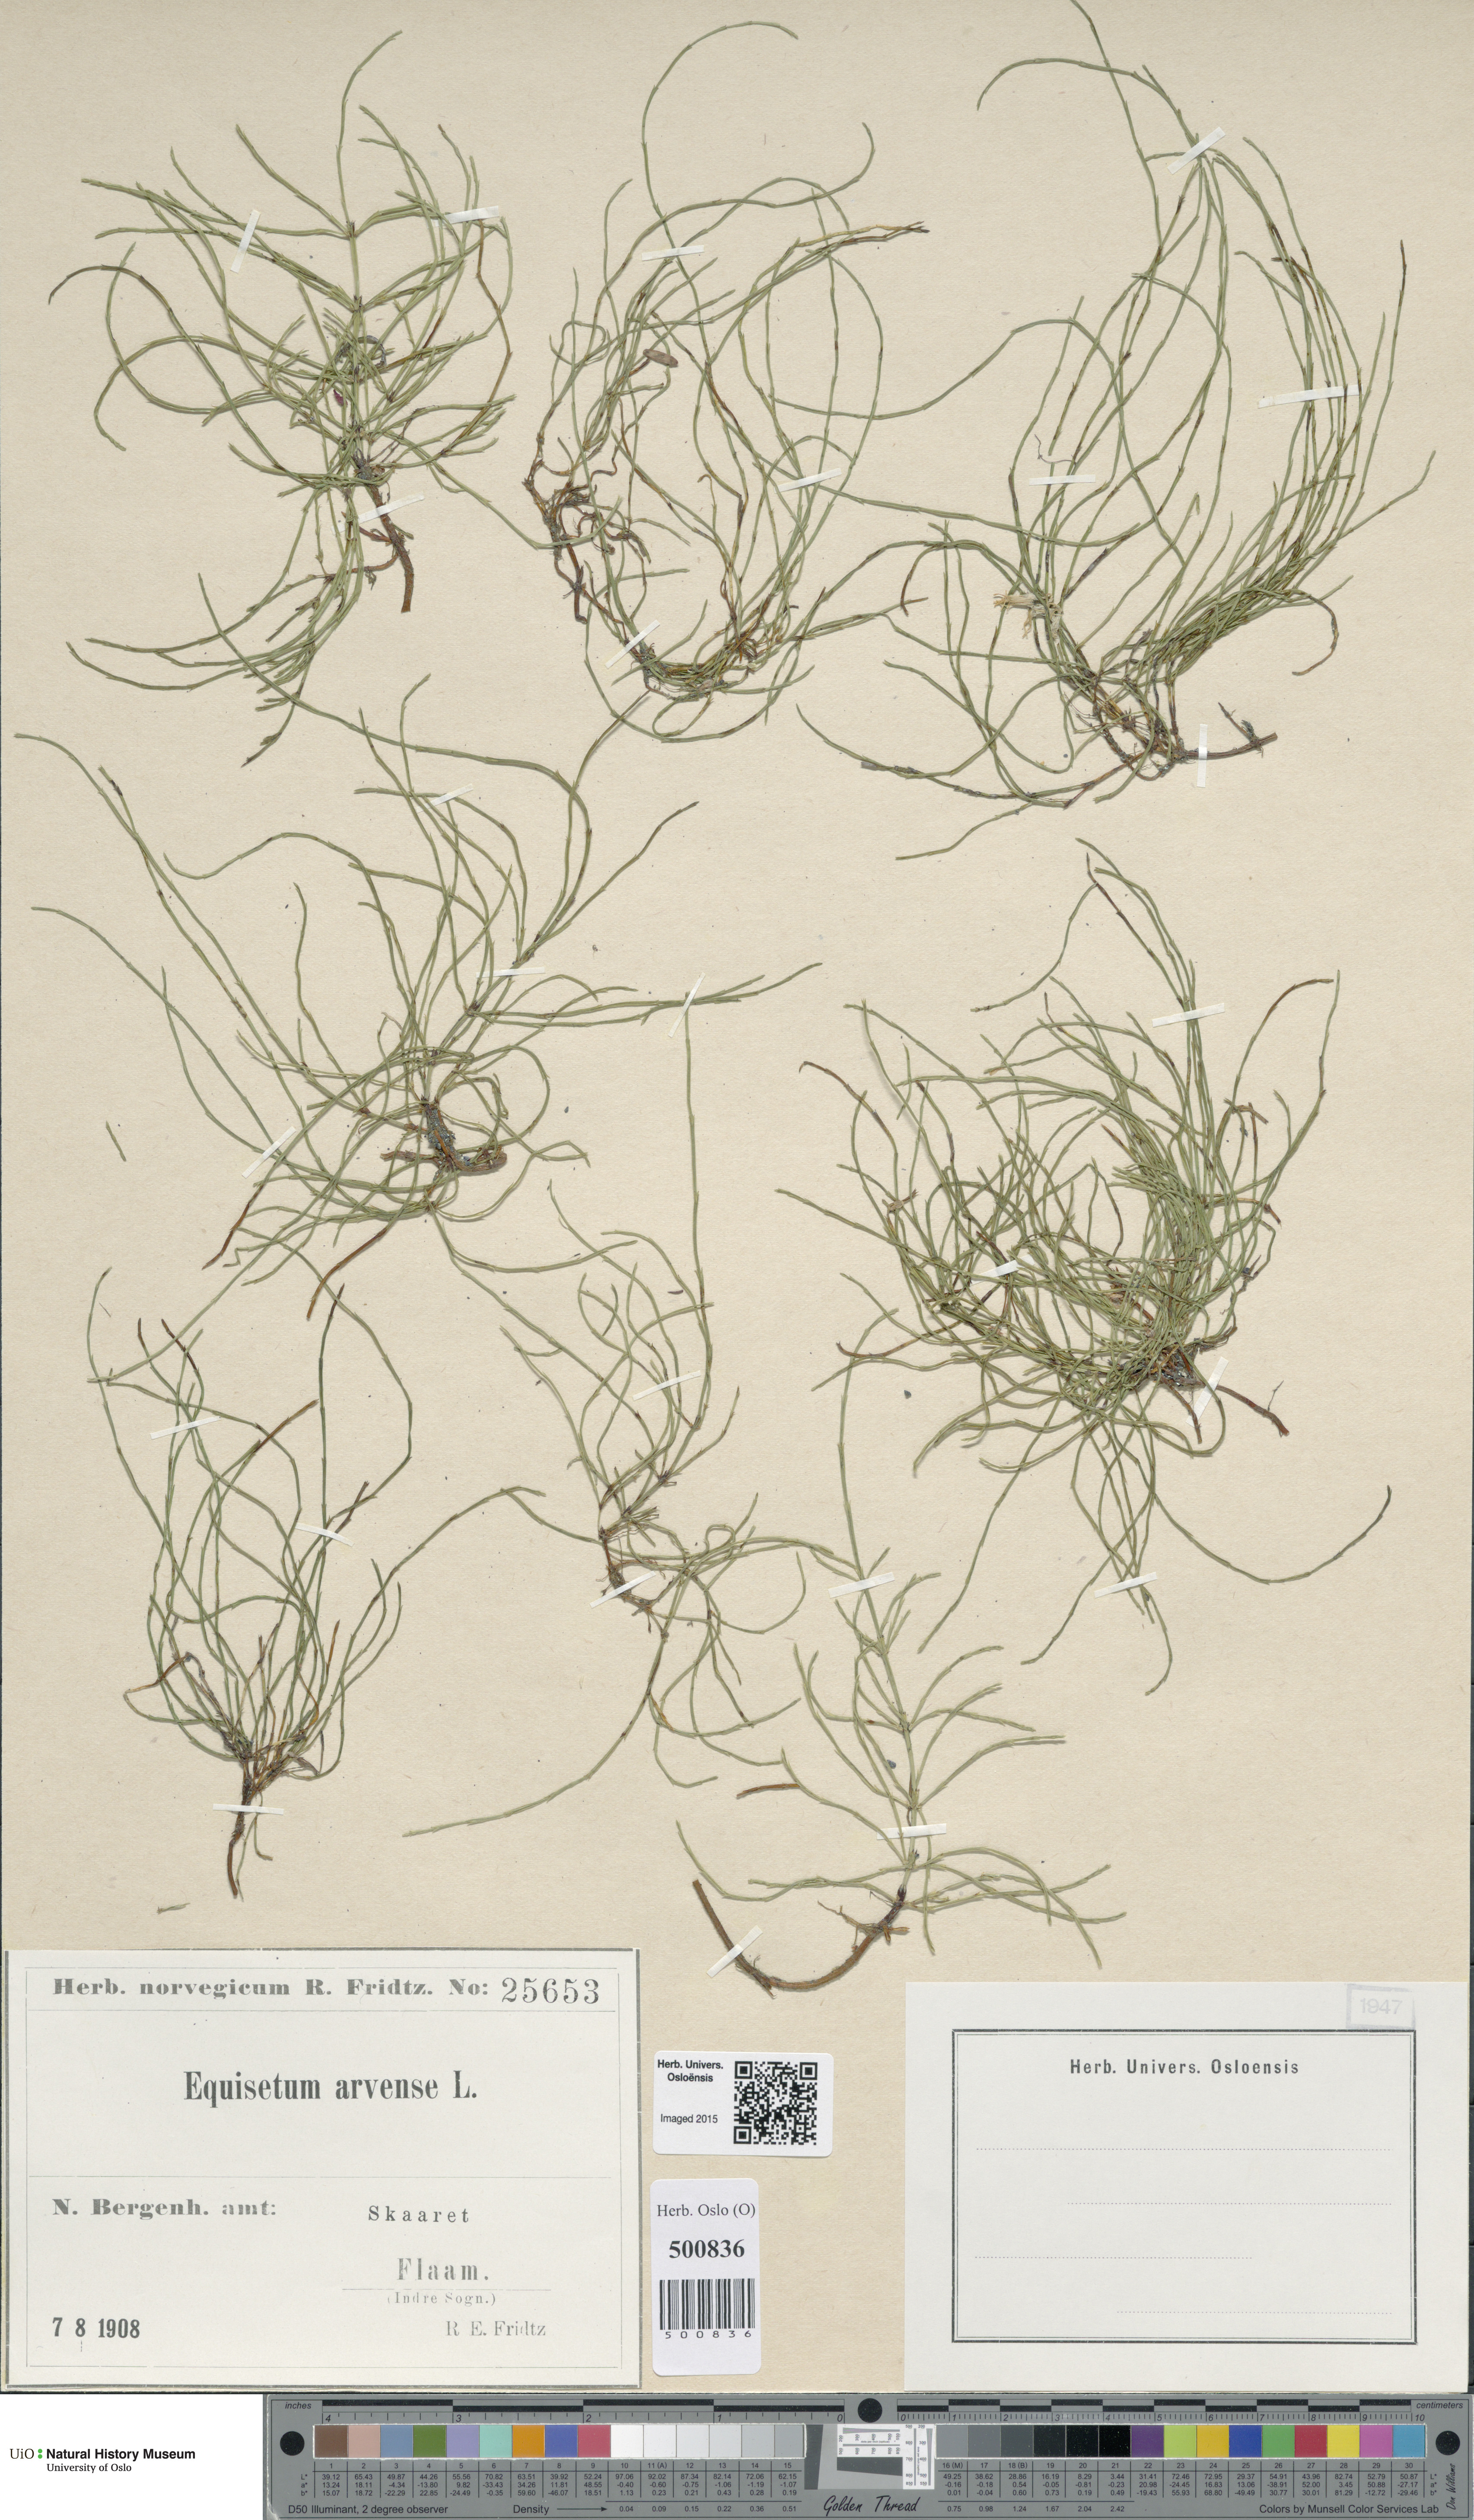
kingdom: Plantae
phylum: Tracheophyta
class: Polypodiopsida
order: Equisetales
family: Equisetaceae
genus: Equisetum
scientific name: Equisetum arvense
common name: Field horsetail
